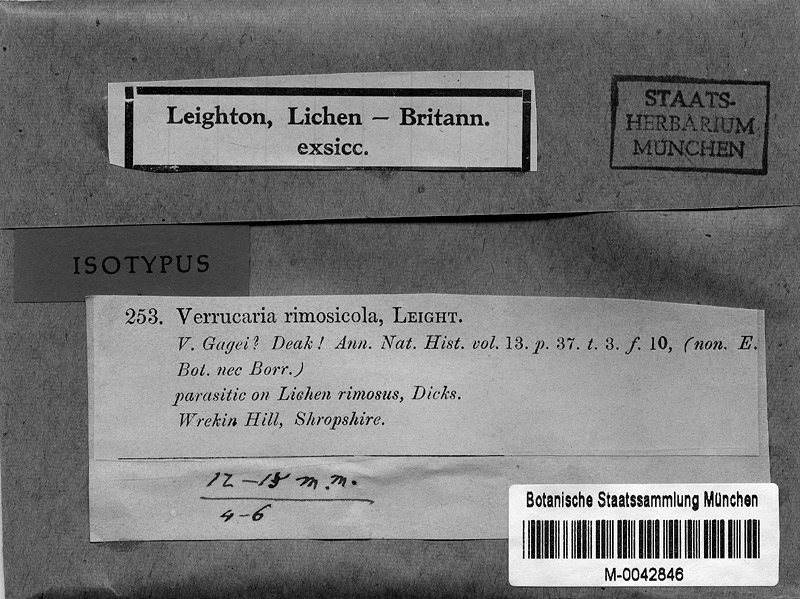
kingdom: Fungi
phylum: Ascomycota
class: Lecanoromycetes
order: Rhizocarpales
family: Rhizocarpaceae
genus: Rhizocarpon
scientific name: Rhizocarpon umbilicatum
